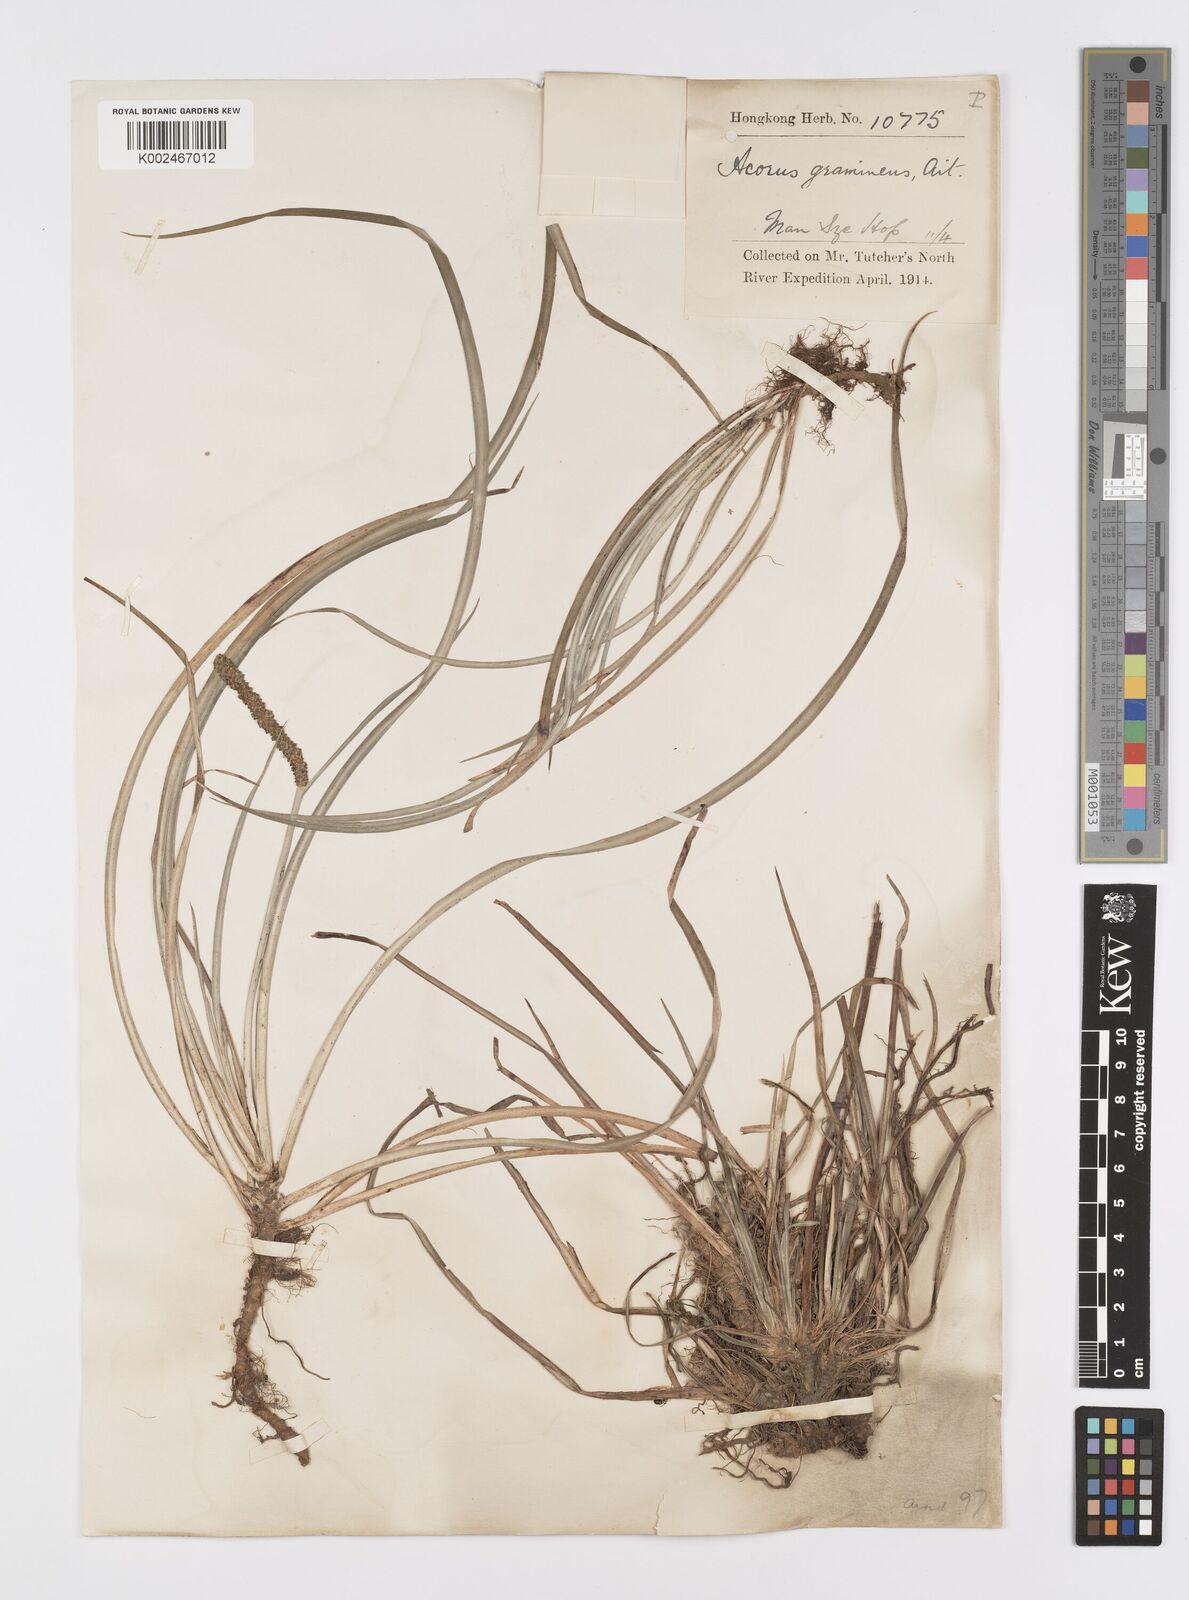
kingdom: Plantae
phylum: Tracheophyta
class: Liliopsida
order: Acorales
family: Acoraceae
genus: Acorus
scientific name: Acorus gramineus
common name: Slender sweet-flag
